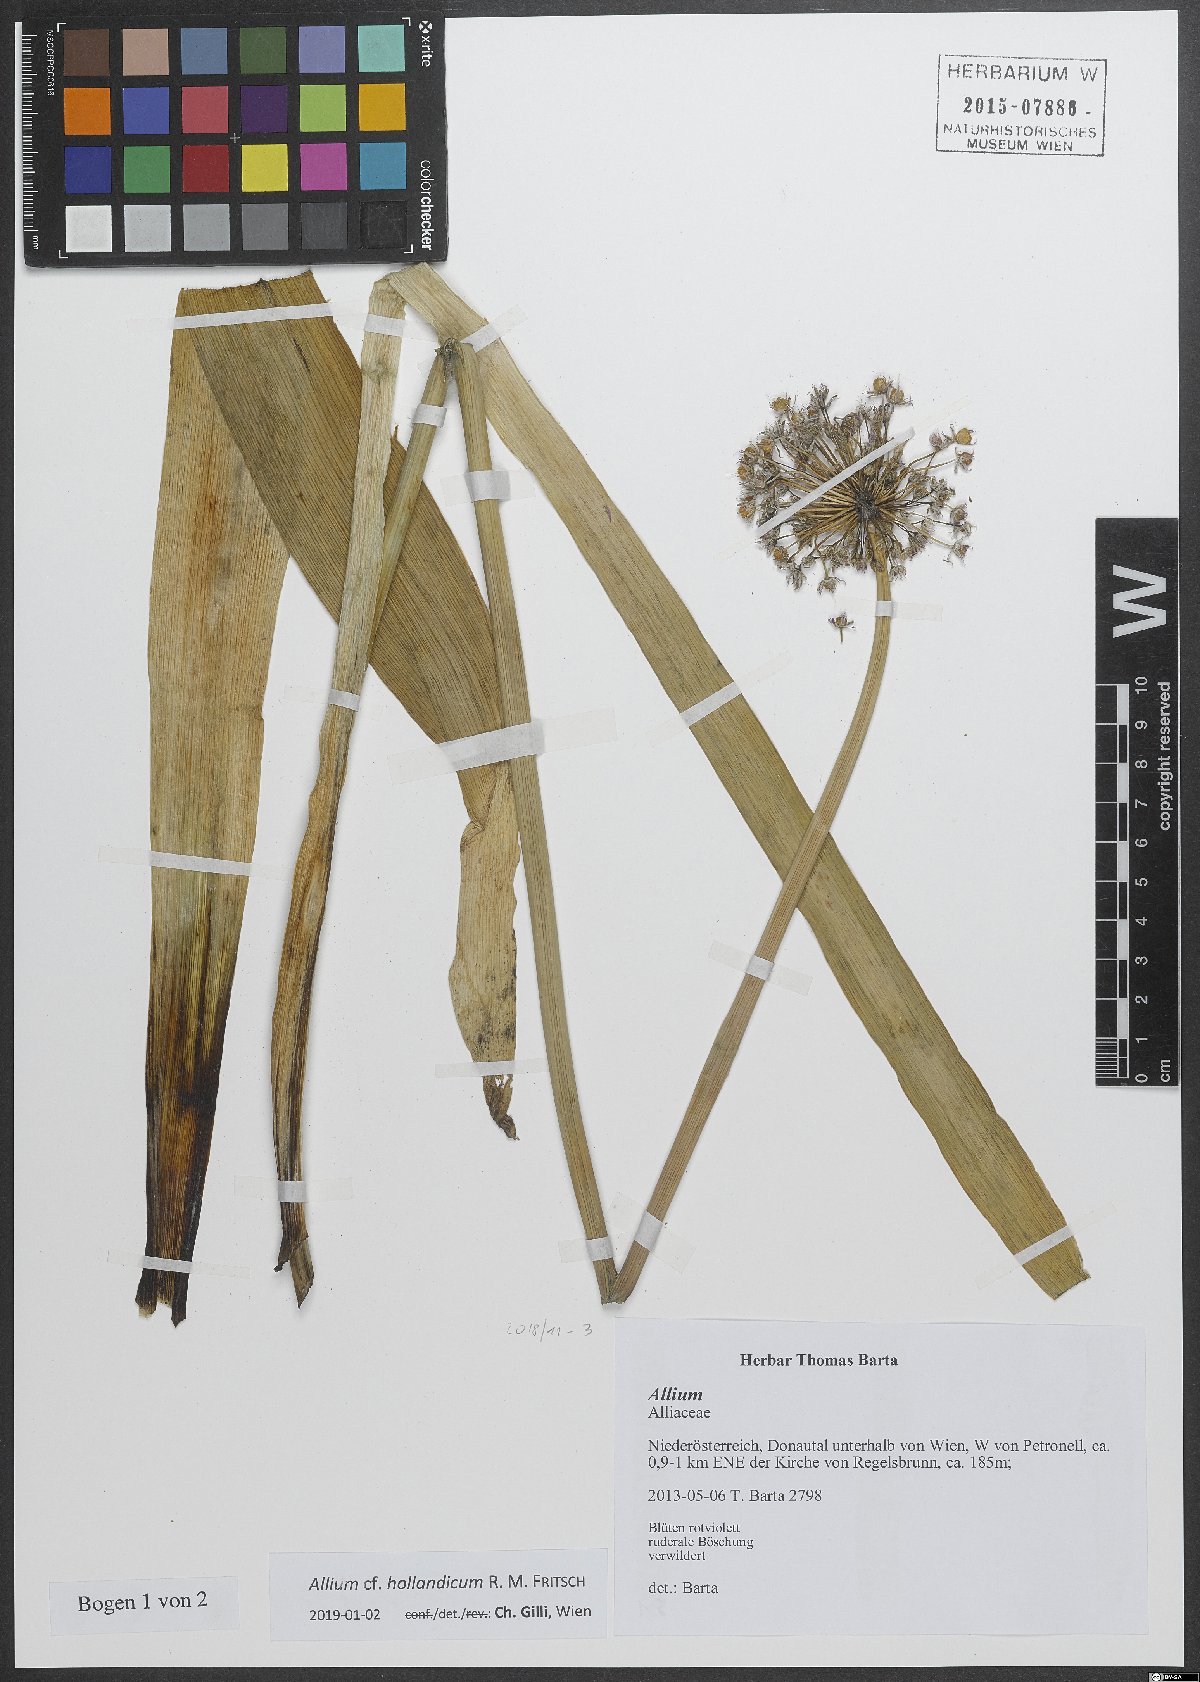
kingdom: Plantae
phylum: Tracheophyta
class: Liliopsida
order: Asparagales
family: Amaryllidaceae
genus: Allium
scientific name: Allium hollandicum
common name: Persian onion
